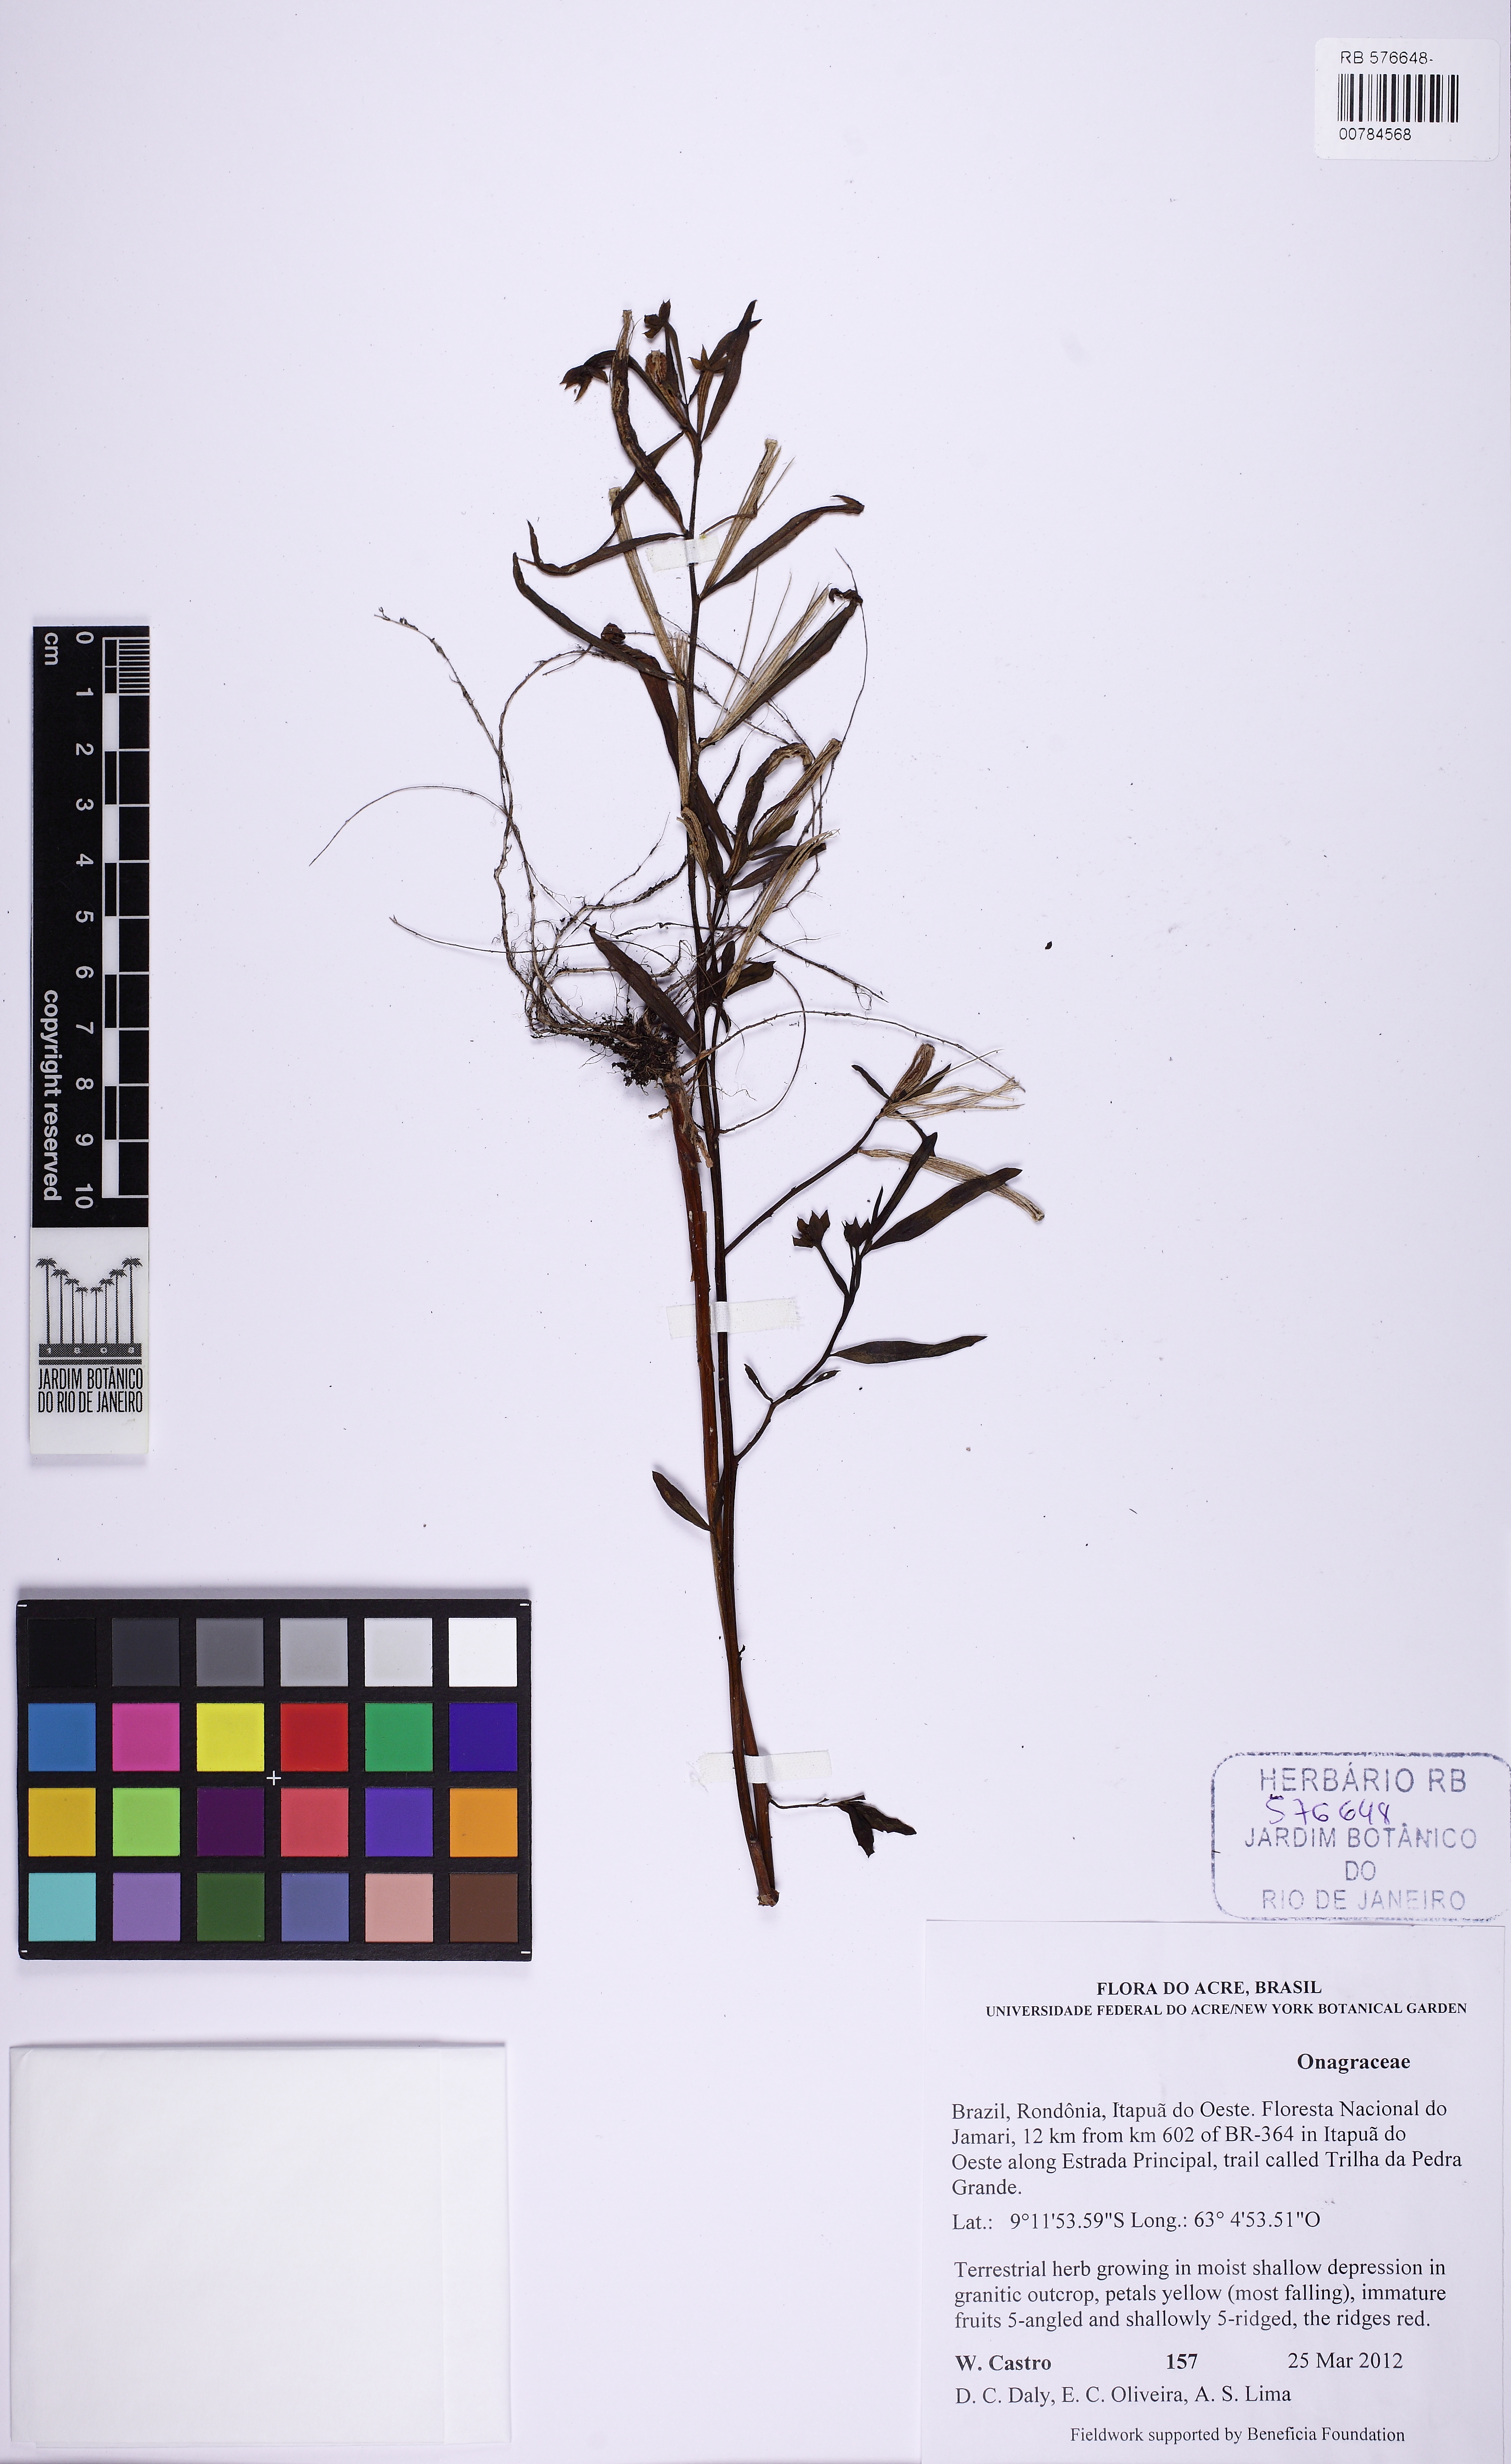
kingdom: Plantae
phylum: Tracheophyta
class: Magnoliopsida
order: Myrtales
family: Onagraceae
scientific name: Onagraceae
